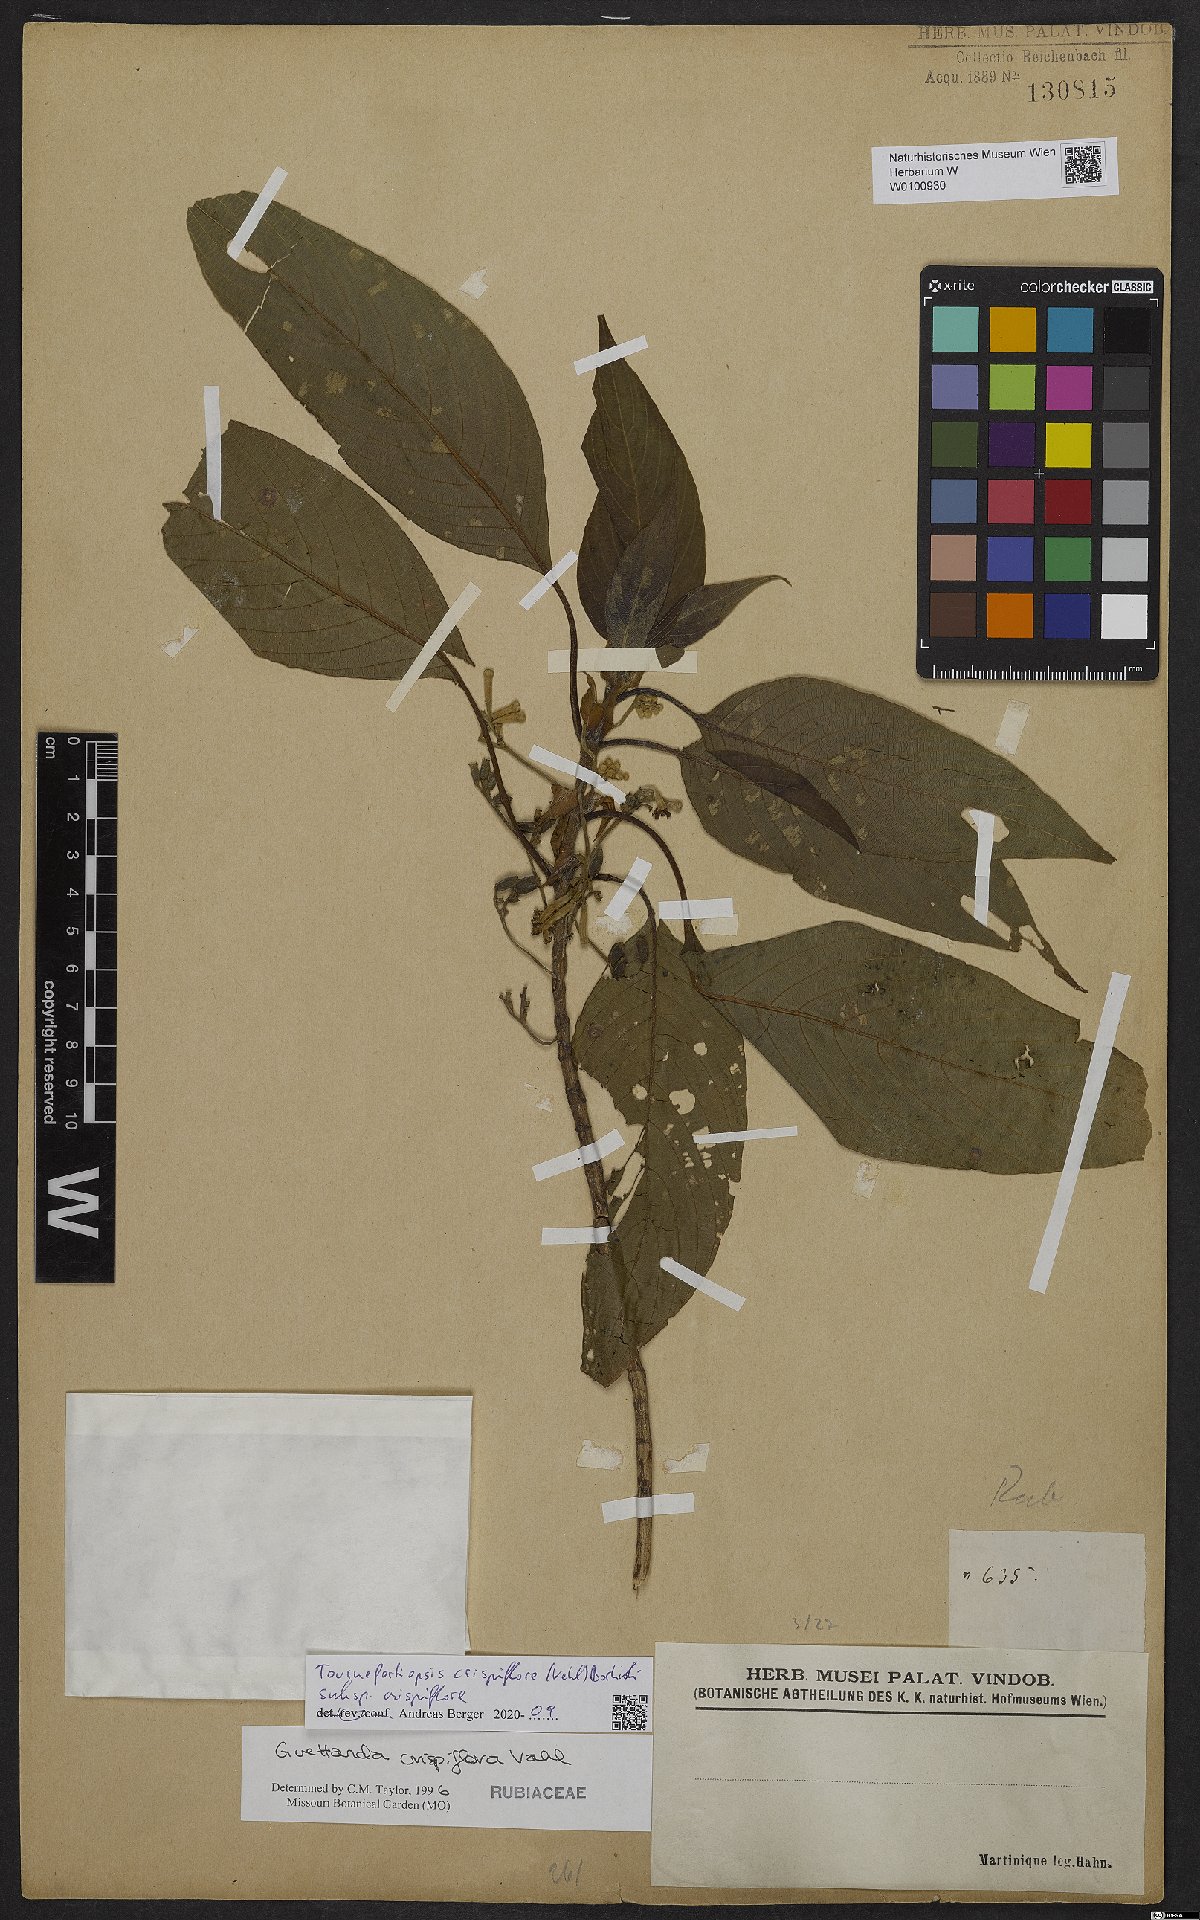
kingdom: Plantae
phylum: Tracheophyta
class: Magnoliopsida
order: Gentianales
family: Rubiaceae
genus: Tournefortiopsis
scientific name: Tournefortiopsis crispiflora
